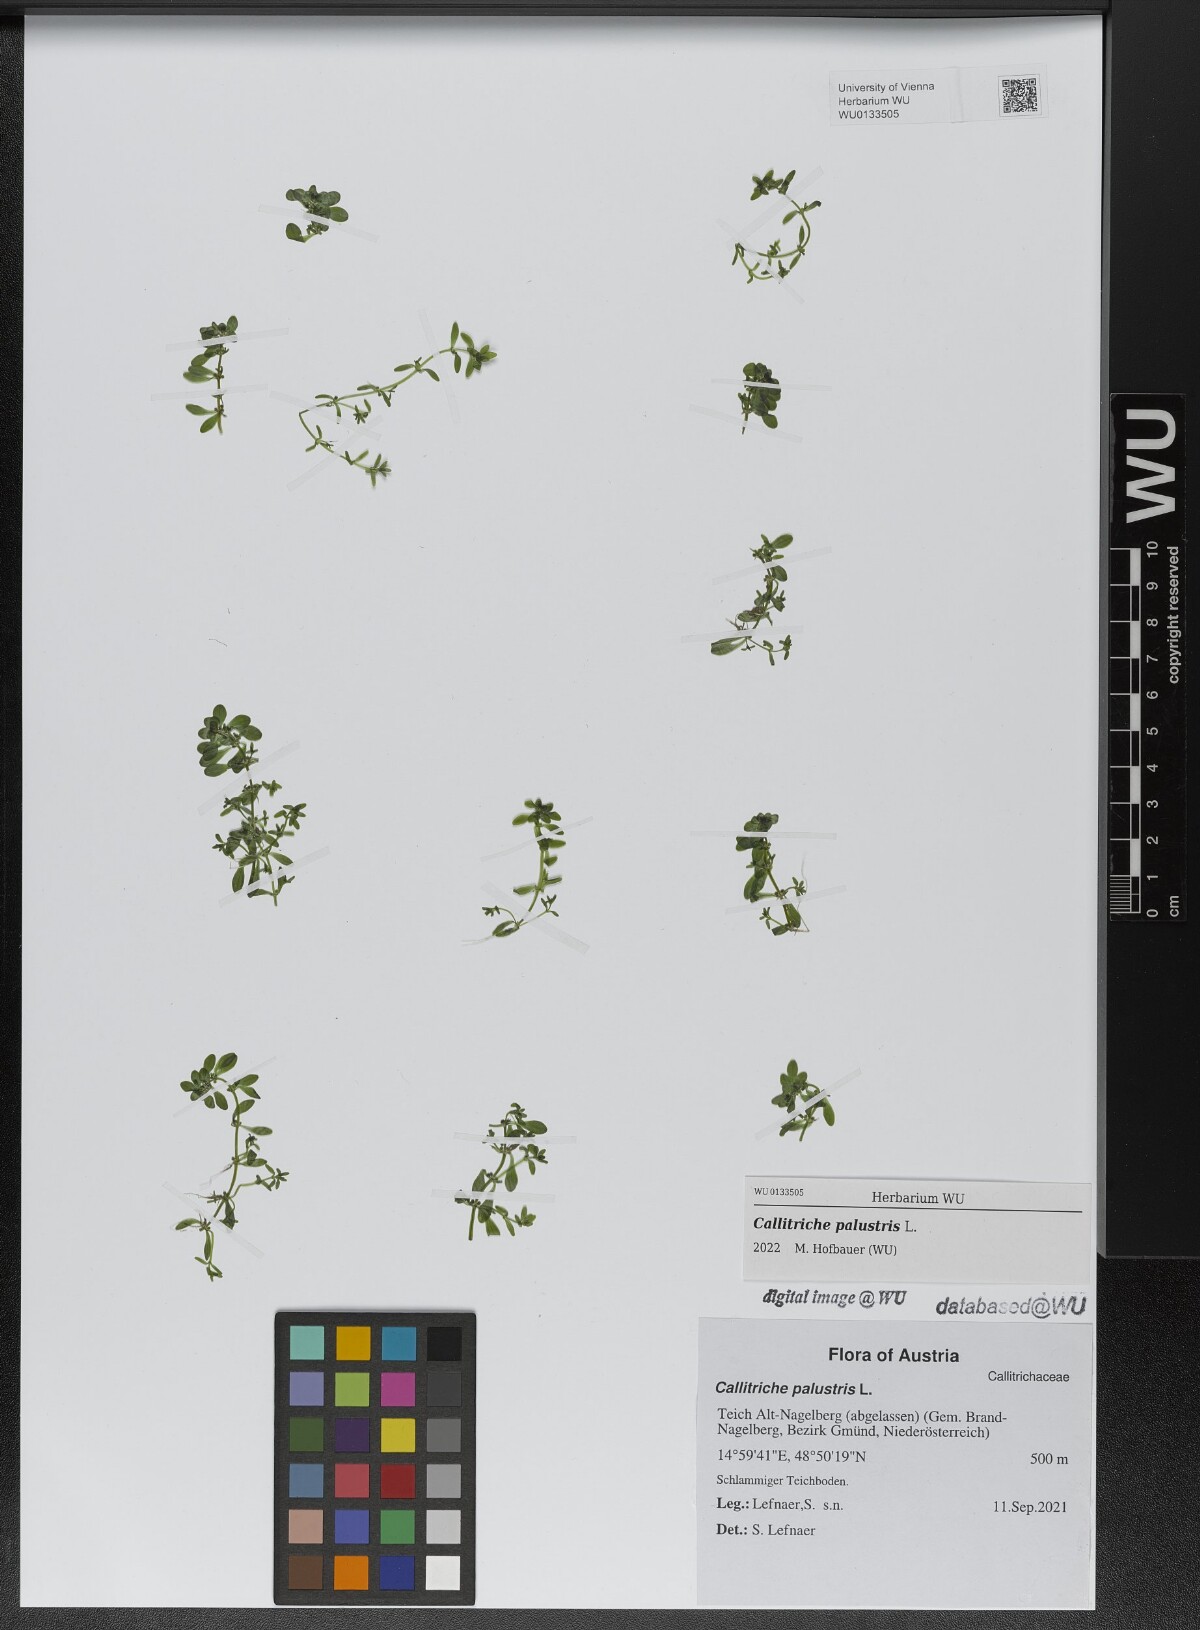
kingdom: Plantae
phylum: Tracheophyta
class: Magnoliopsida
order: Lamiales
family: Plantaginaceae
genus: Callitriche
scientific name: Callitriche palustris
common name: Spring water-starwort
